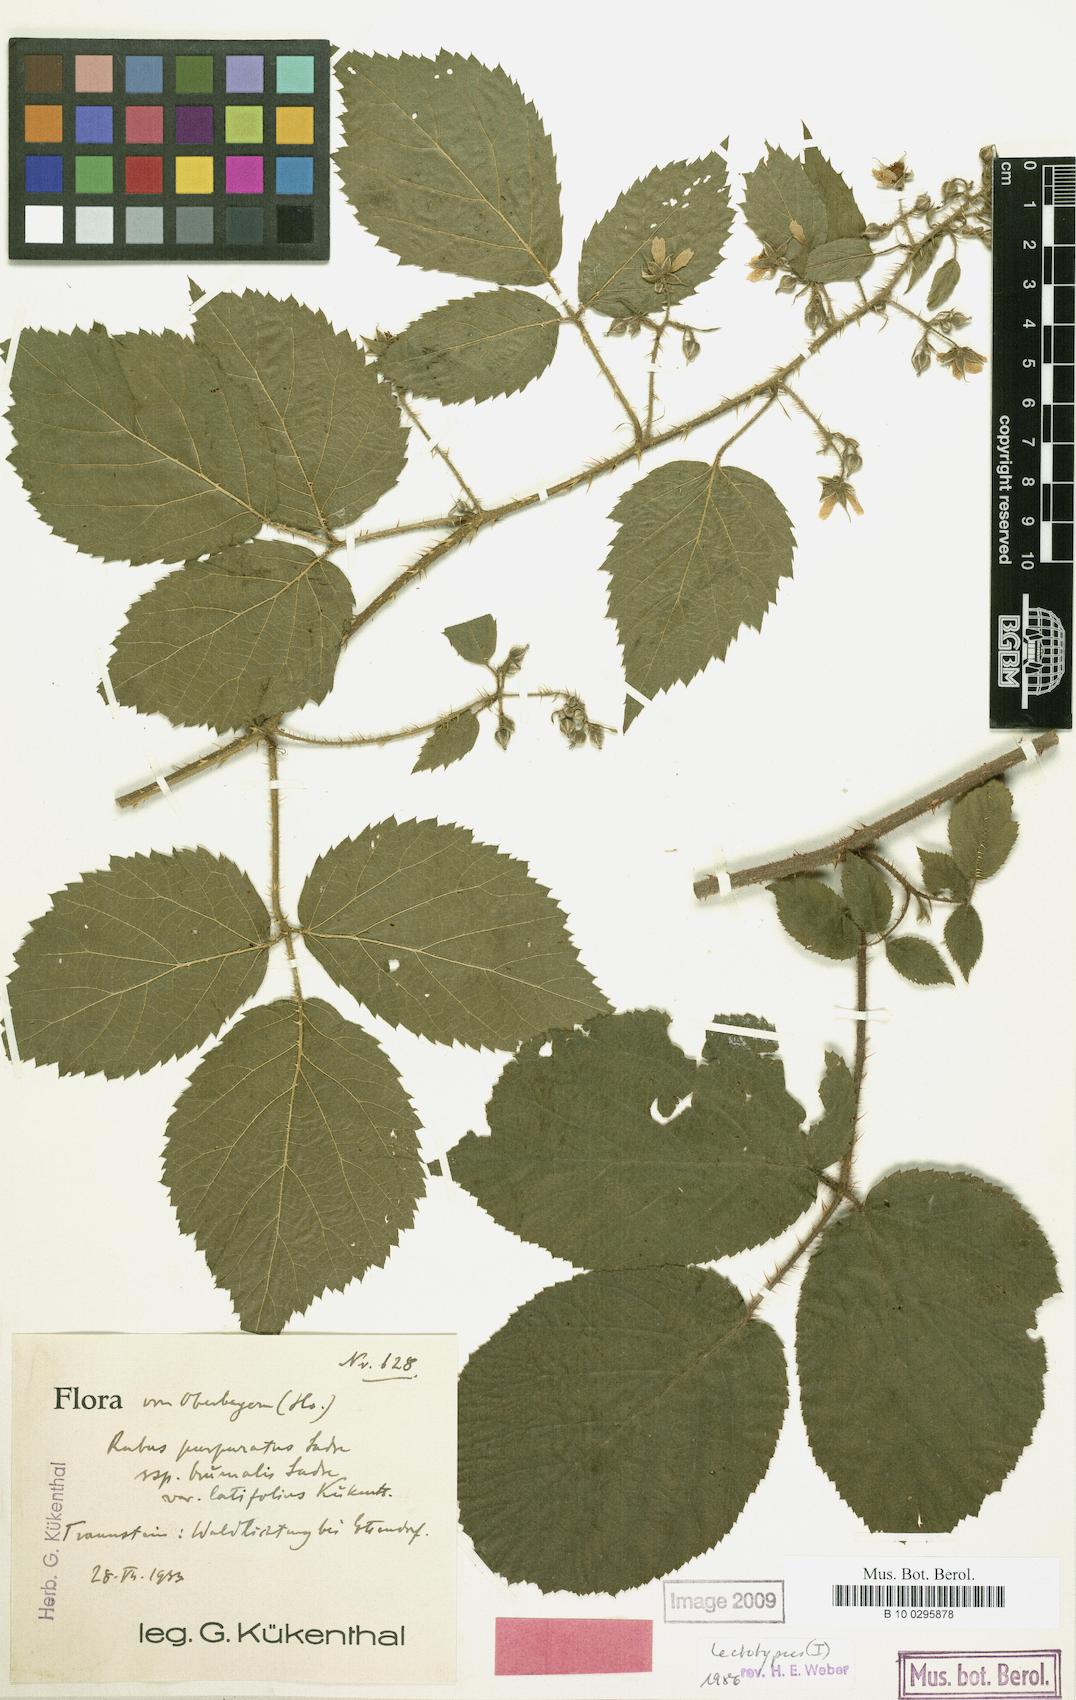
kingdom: Plantae
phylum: Tracheophyta
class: Magnoliopsida
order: Rosales
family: Rosaceae
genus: Rubus
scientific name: Rubus amoenus
